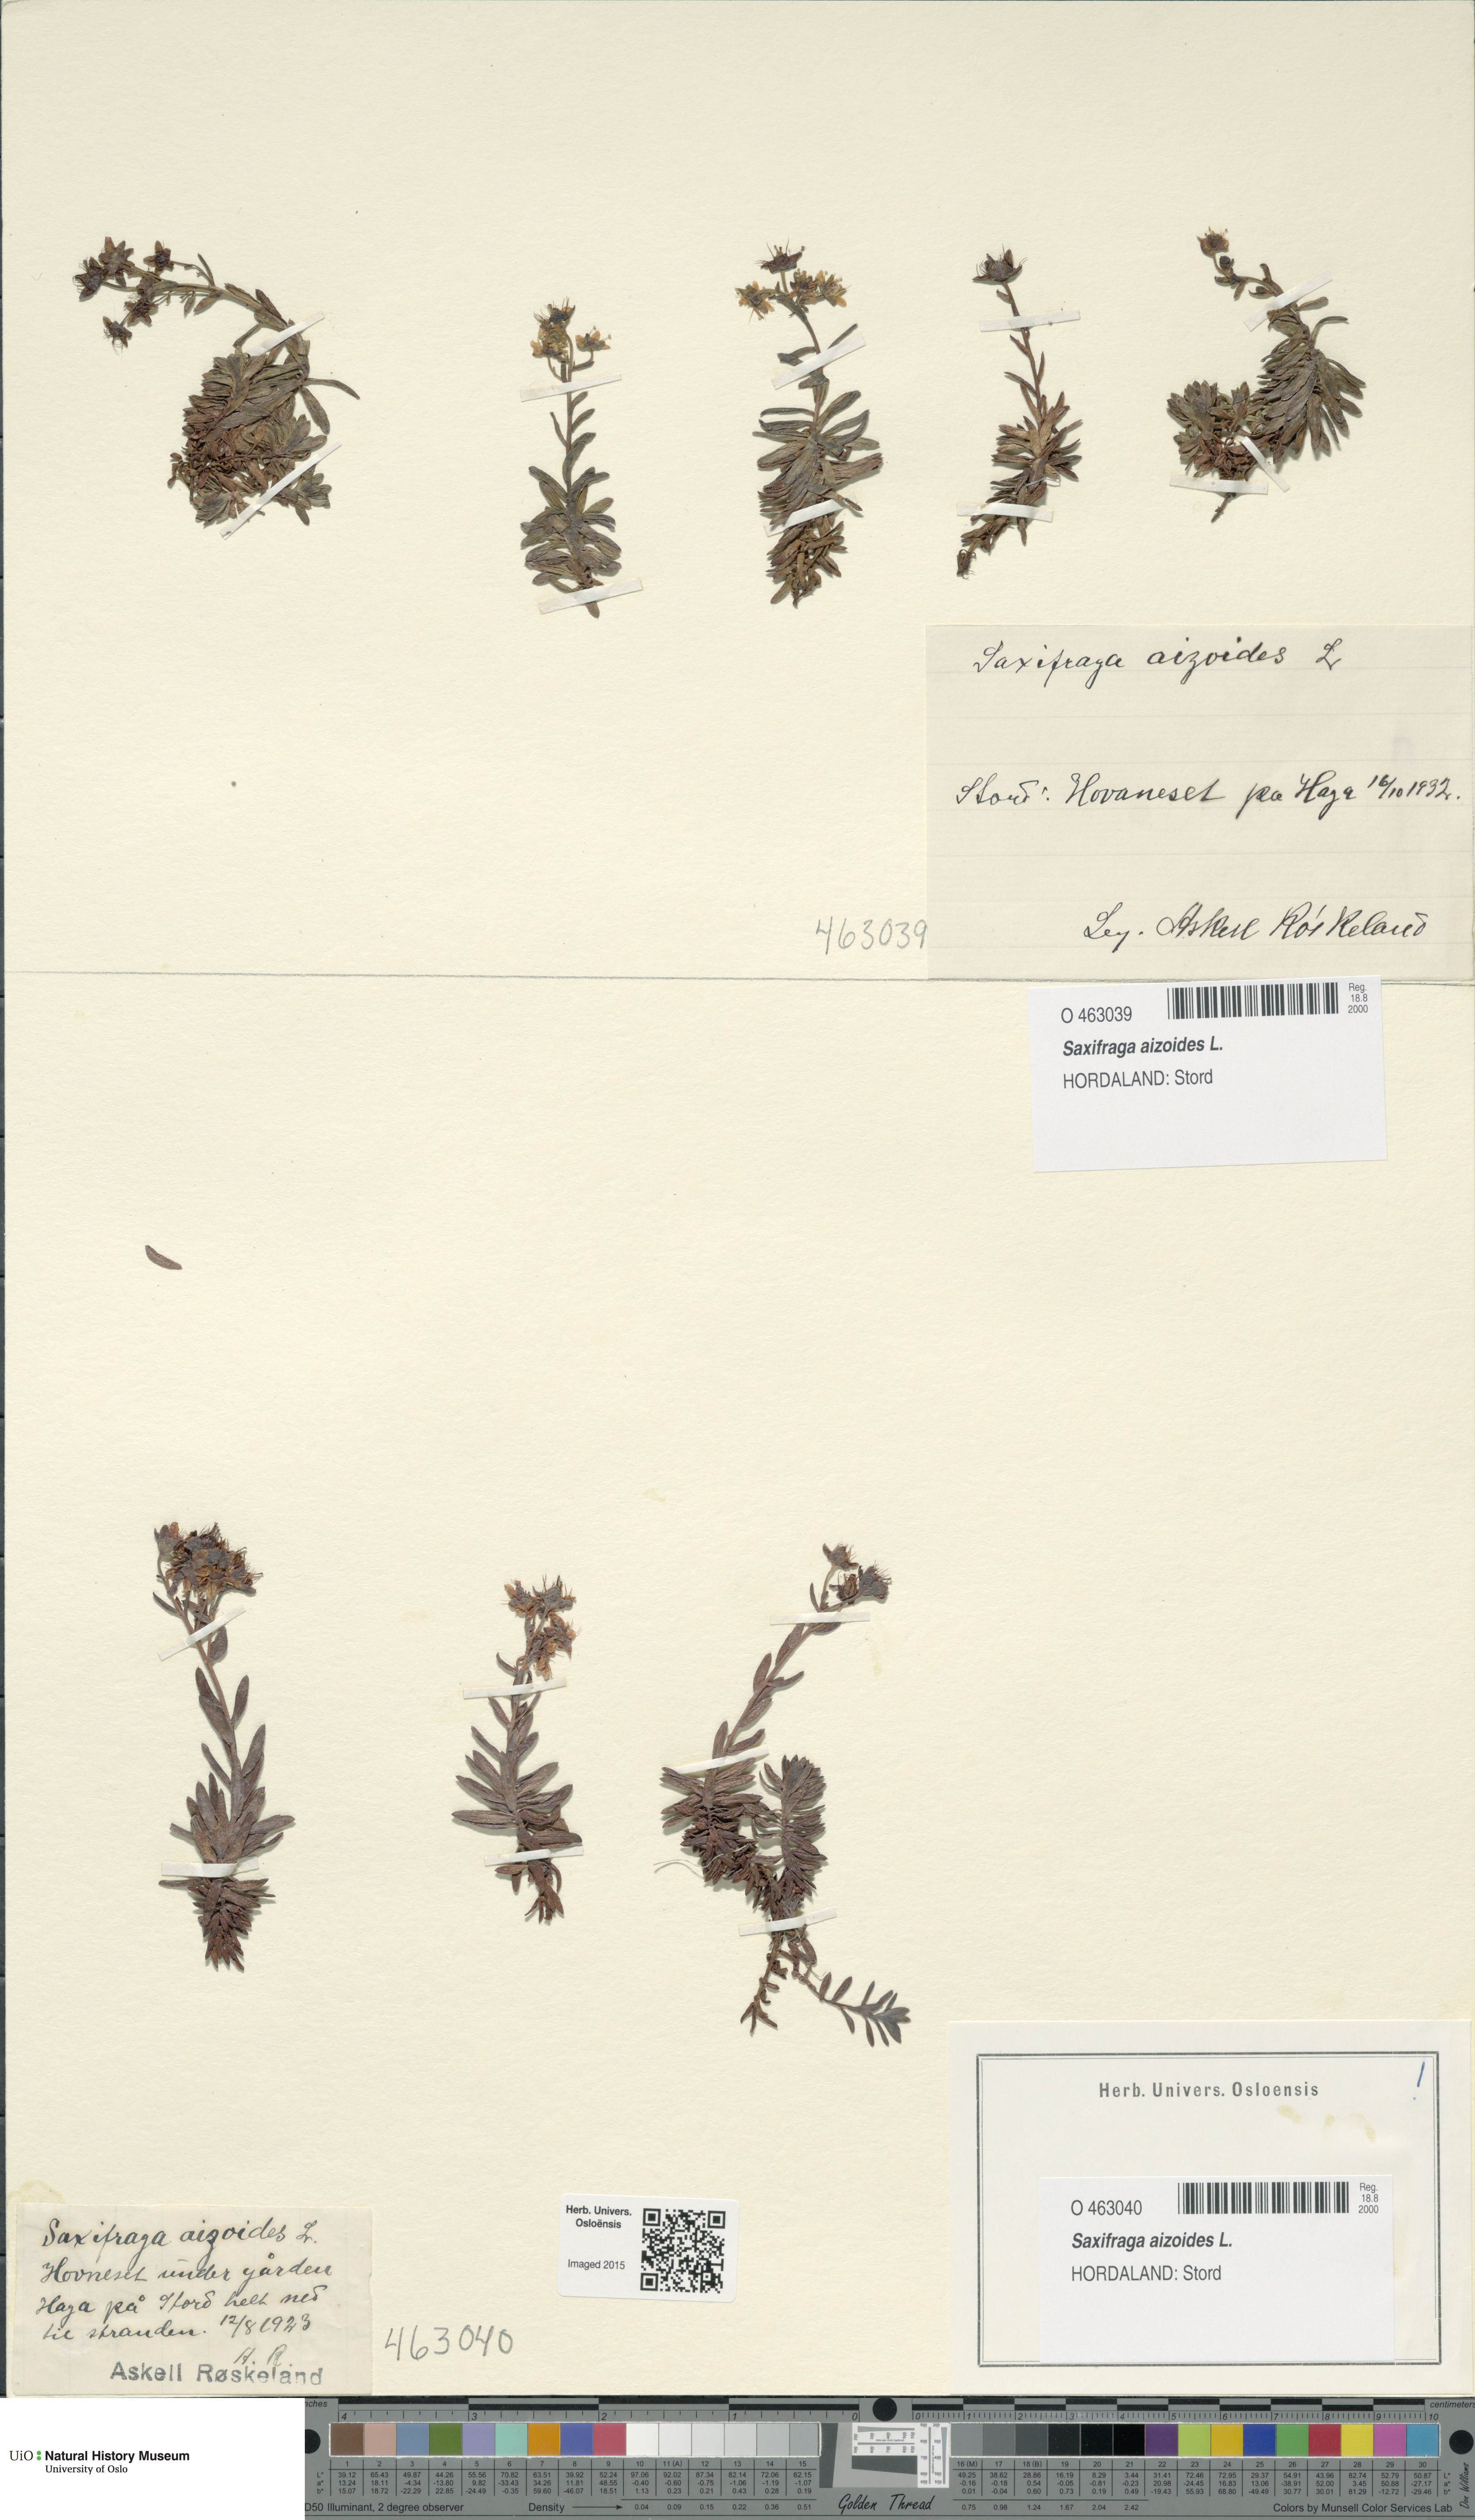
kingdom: Plantae
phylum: Tracheophyta
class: Magnoliopsida
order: Saxifragales
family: Saxifragaceae
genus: Saxifraga
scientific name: Saxifraga aizoides
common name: Yellow mountain saxifrage
